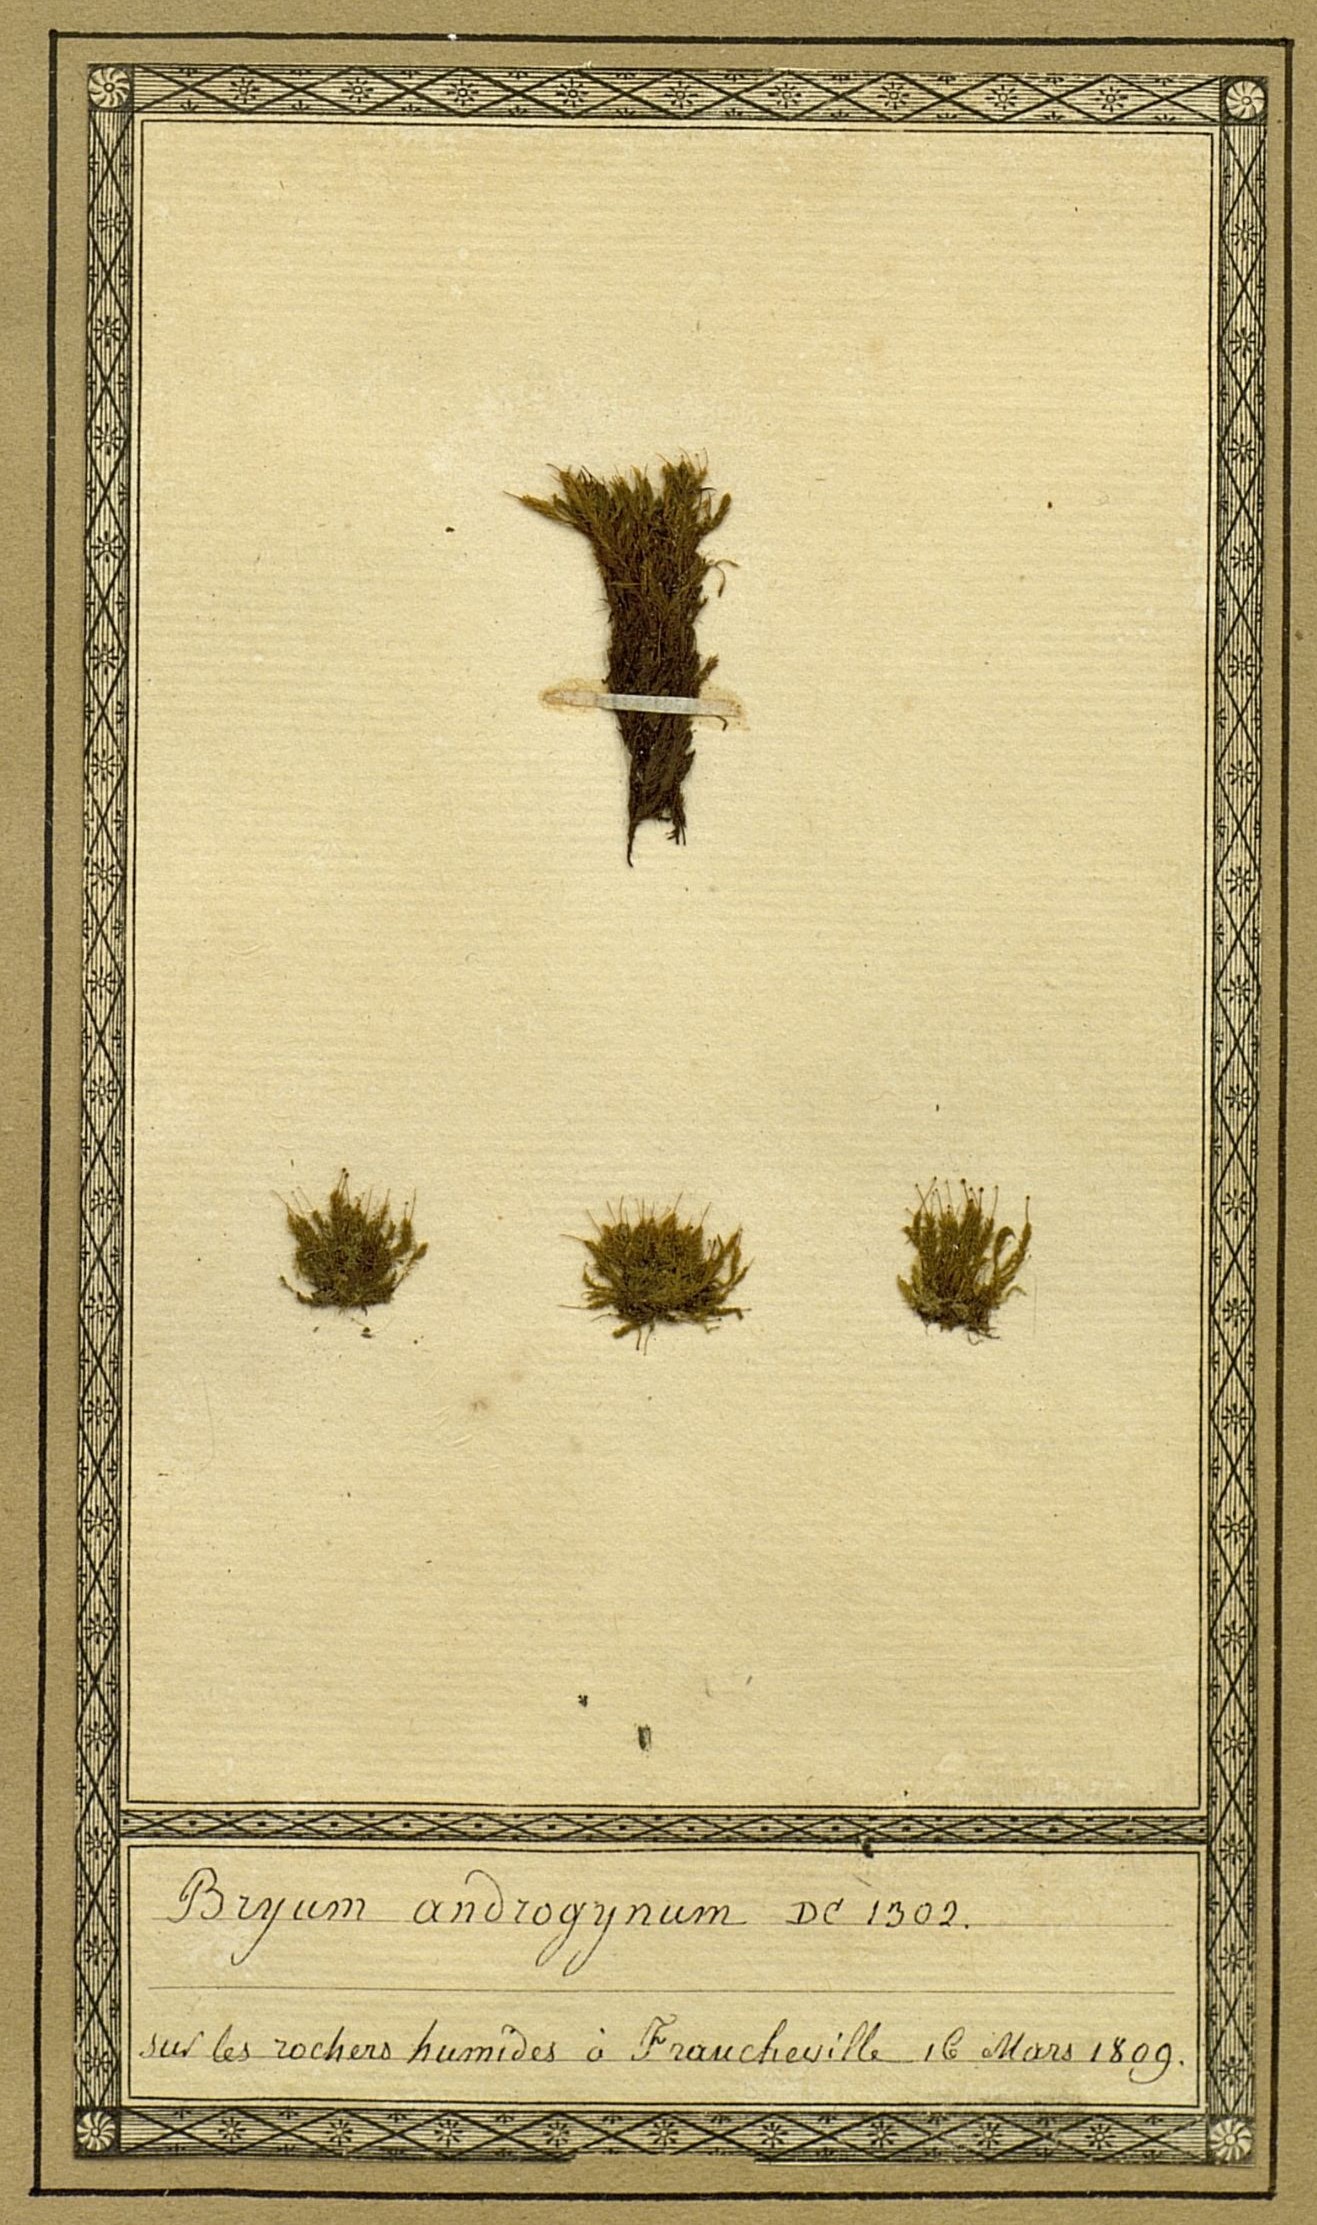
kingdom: Plantae
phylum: Bryophyta
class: Bryopsida
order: Bryales
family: Bryaceae
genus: Ptychostomum
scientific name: Ptychostomum lonchocaulon
